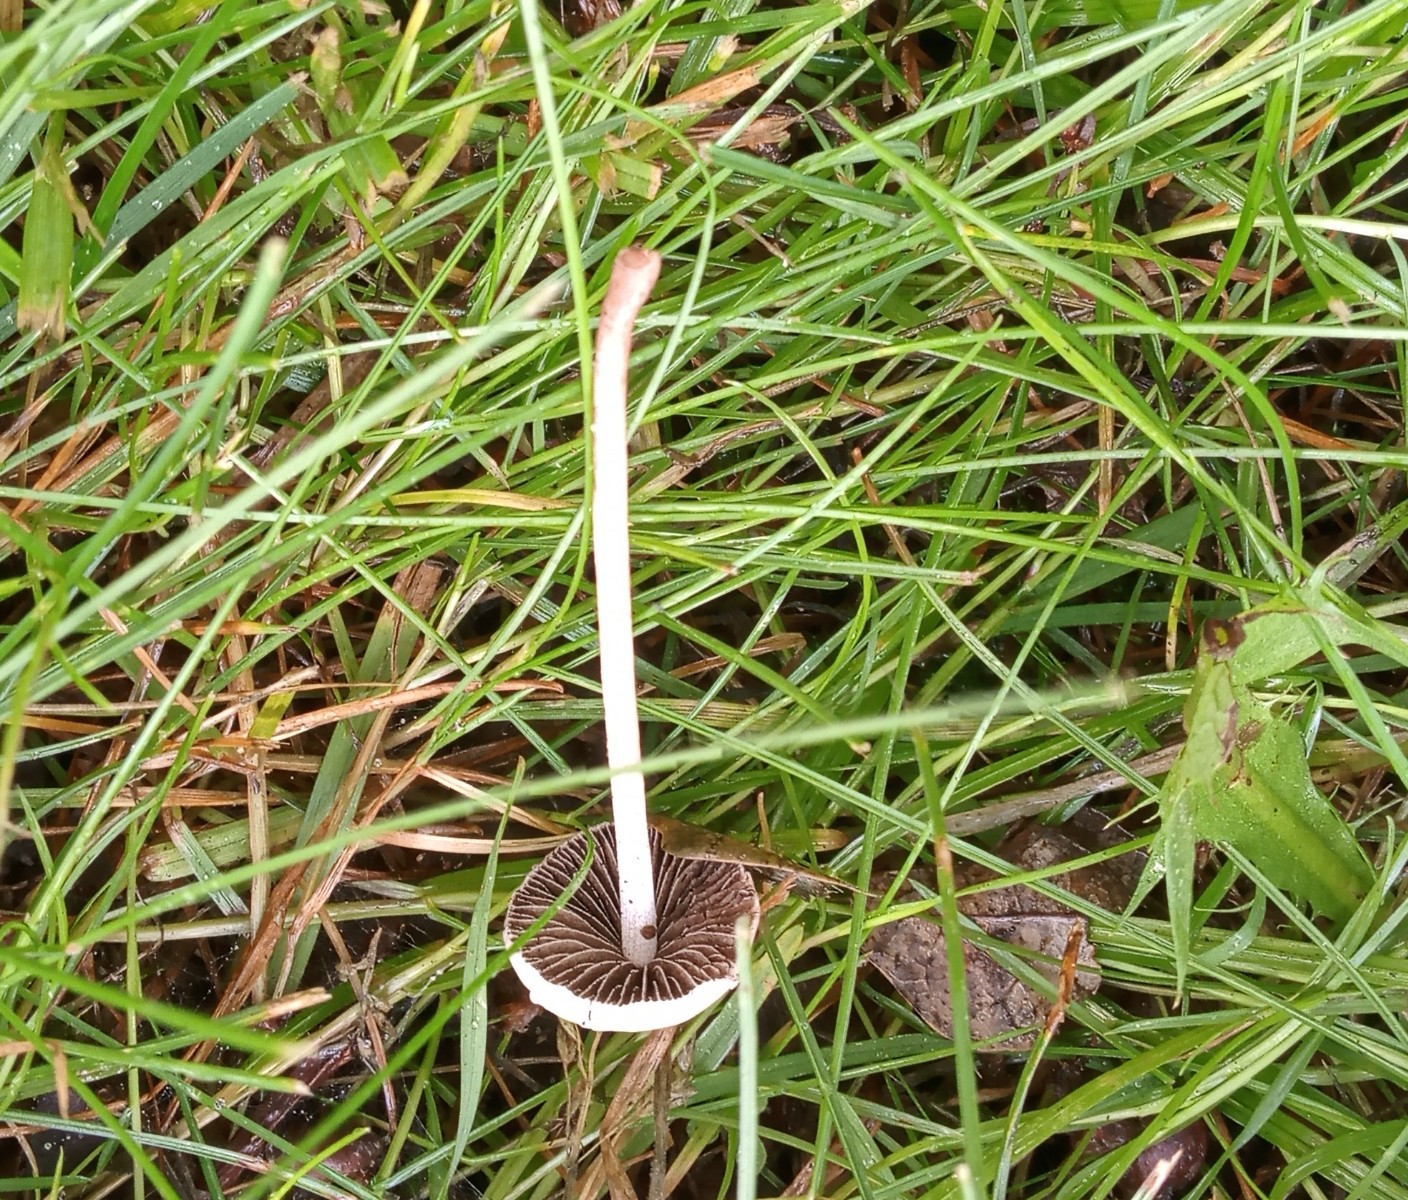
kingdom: Fungi
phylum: Basidiomycota
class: Agaricomycetes
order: Agaricales
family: Bolbitiaceae
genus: Panaeolina
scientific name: Panaeolina foenisecii
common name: høslætsvamp
